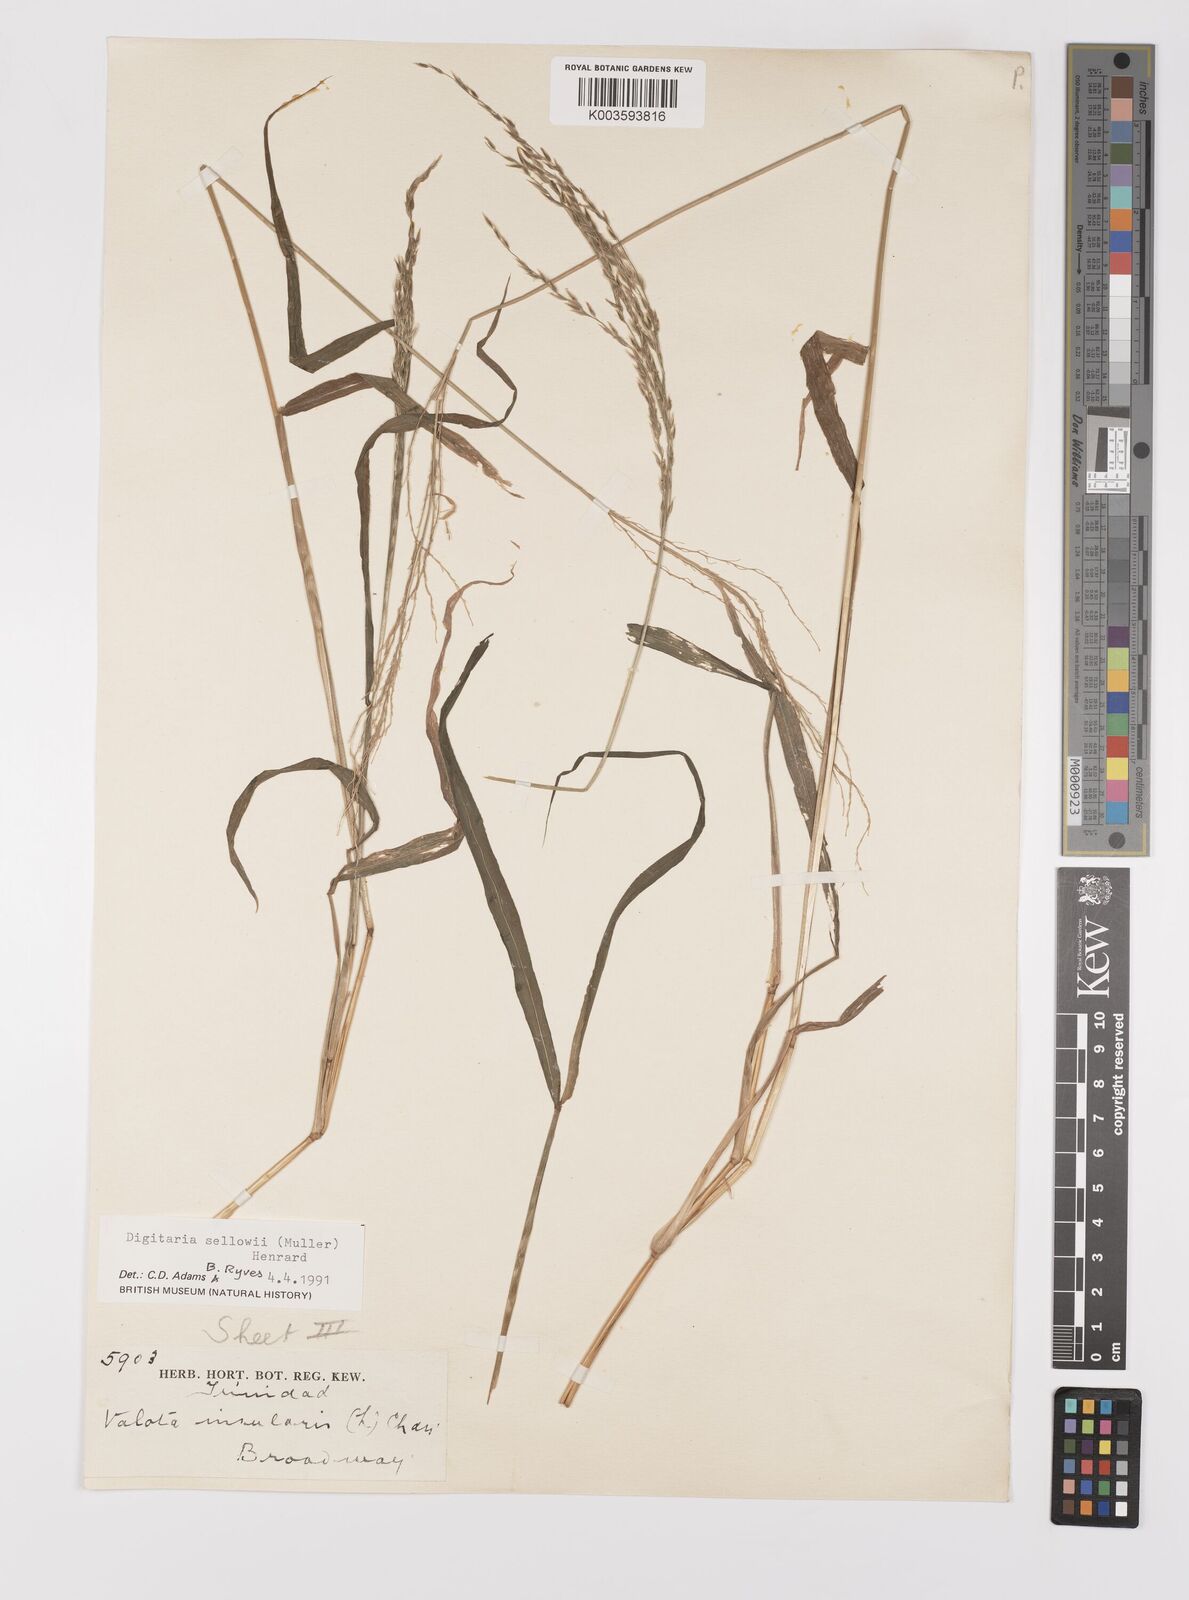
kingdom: Plantae
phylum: Tracheophyta
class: Liliopsida
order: Poales
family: Poaceae
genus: Digitaria
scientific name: Digitaria sellowii
